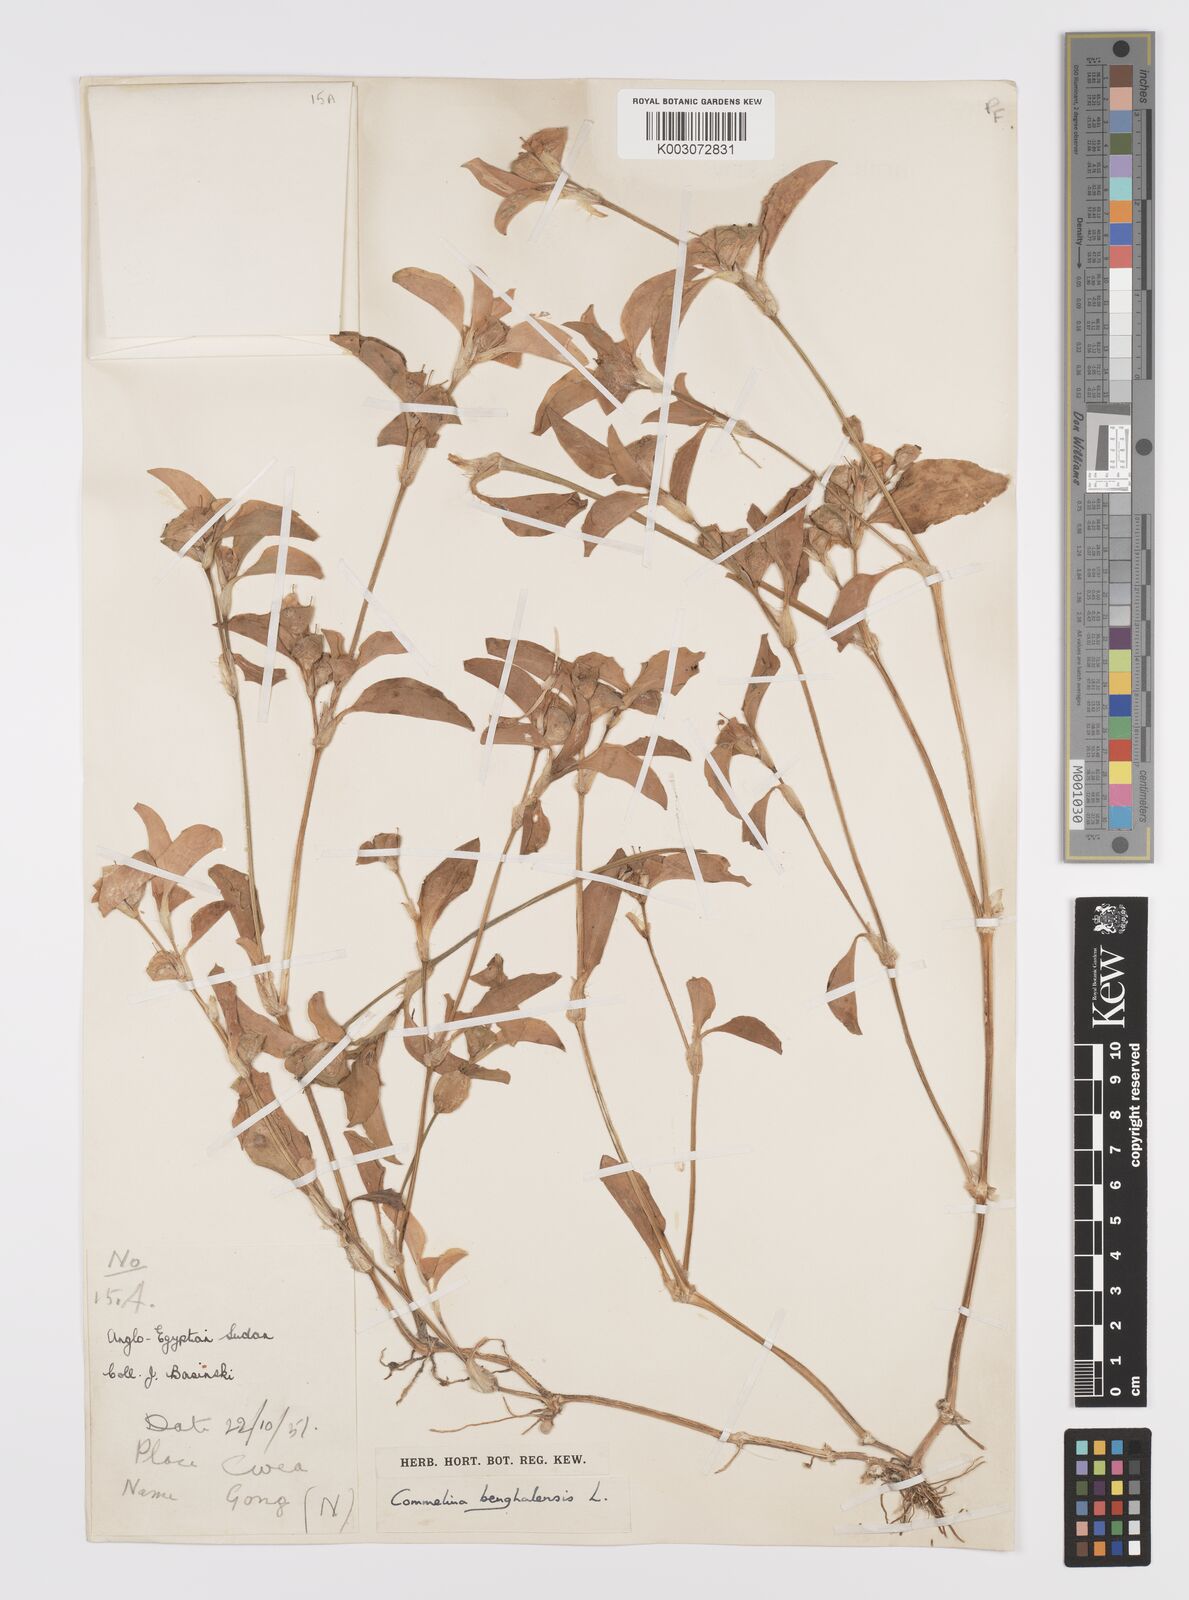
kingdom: Plantae
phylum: Tracheophyta
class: Liliopsida
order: Commelinales
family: Commelinaceae
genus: Commelina
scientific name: Commelina benghalensis
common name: Jio
